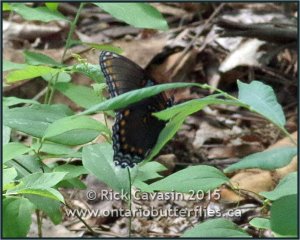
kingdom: Animalia
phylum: Arthropoda
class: Insecta
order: Lepidoptera
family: Nymphalidae
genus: Limenitis
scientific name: Limenitis astyanax
